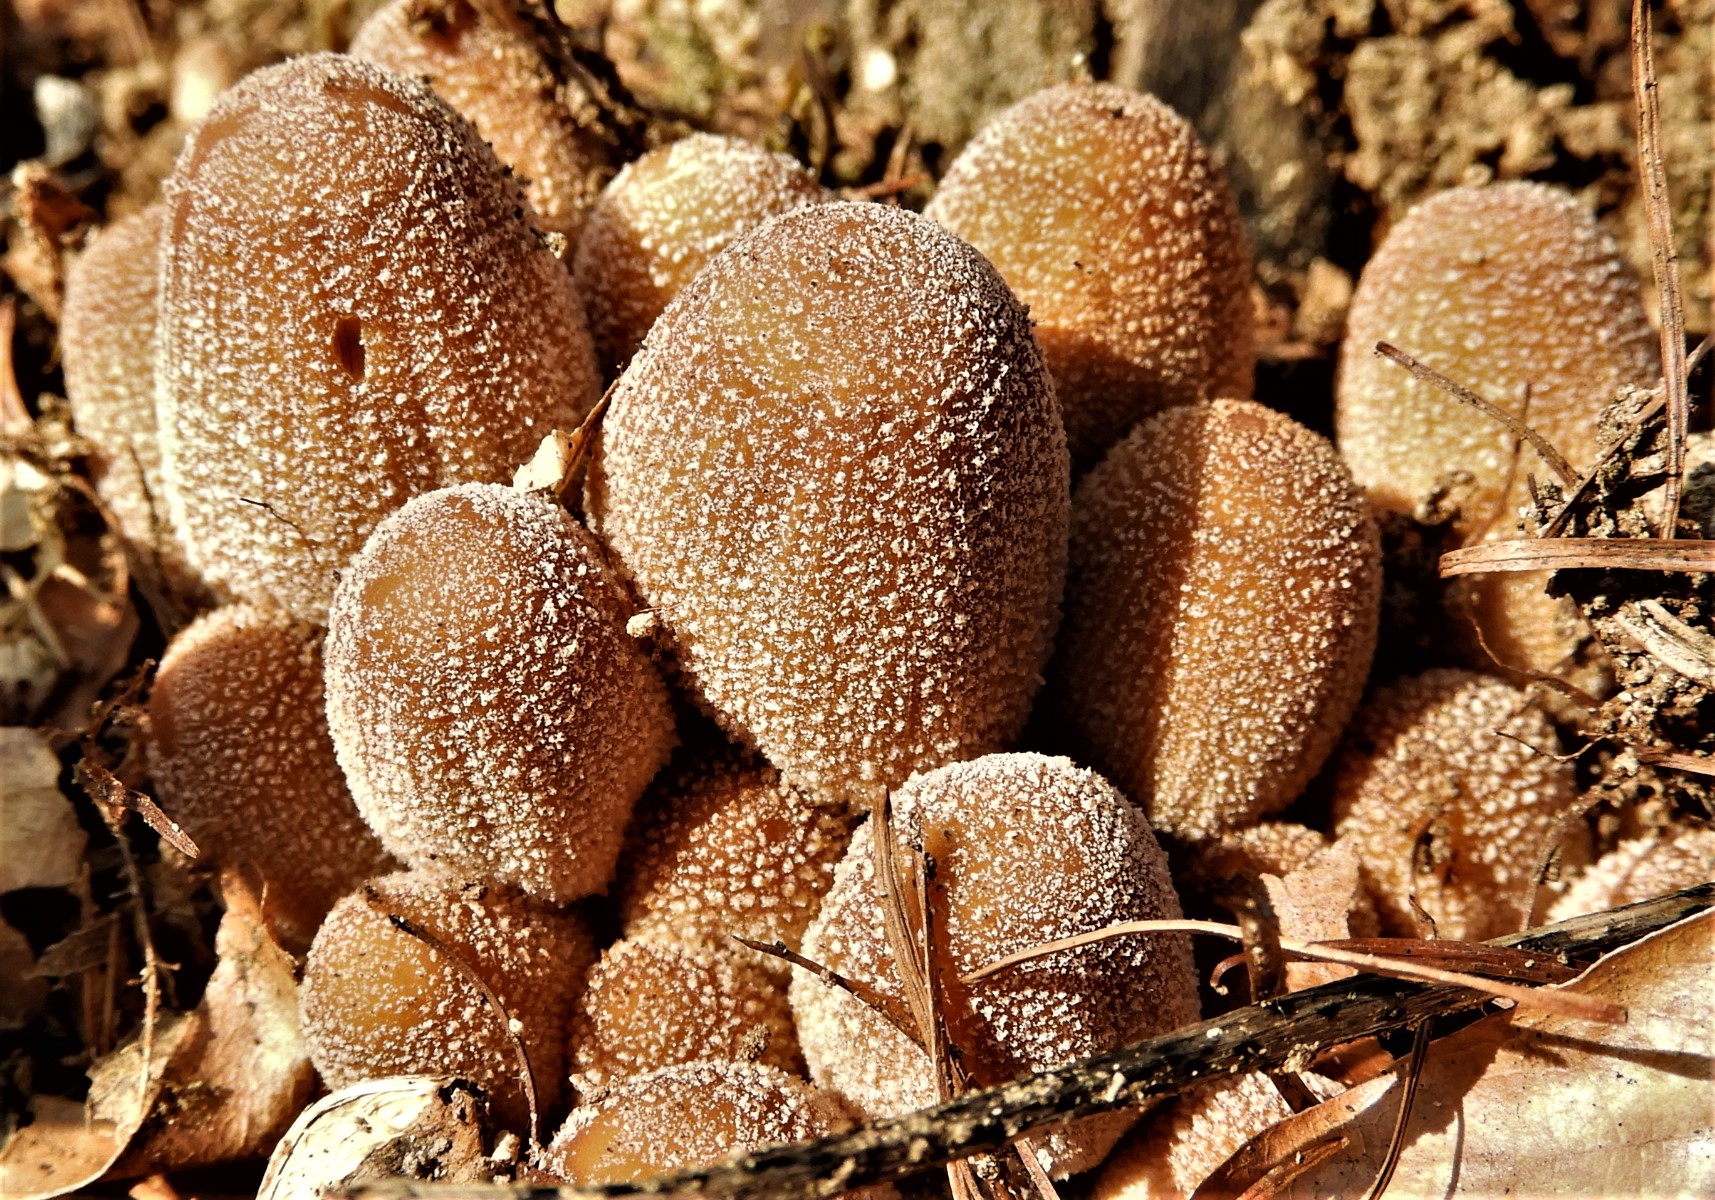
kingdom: Fungi
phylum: Basidiomycota
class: Agaricomycetes
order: Agaricales
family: Psathyrellaceae
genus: Coprinellus
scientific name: Coprinellus micaceus
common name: glimmer-blækhat
